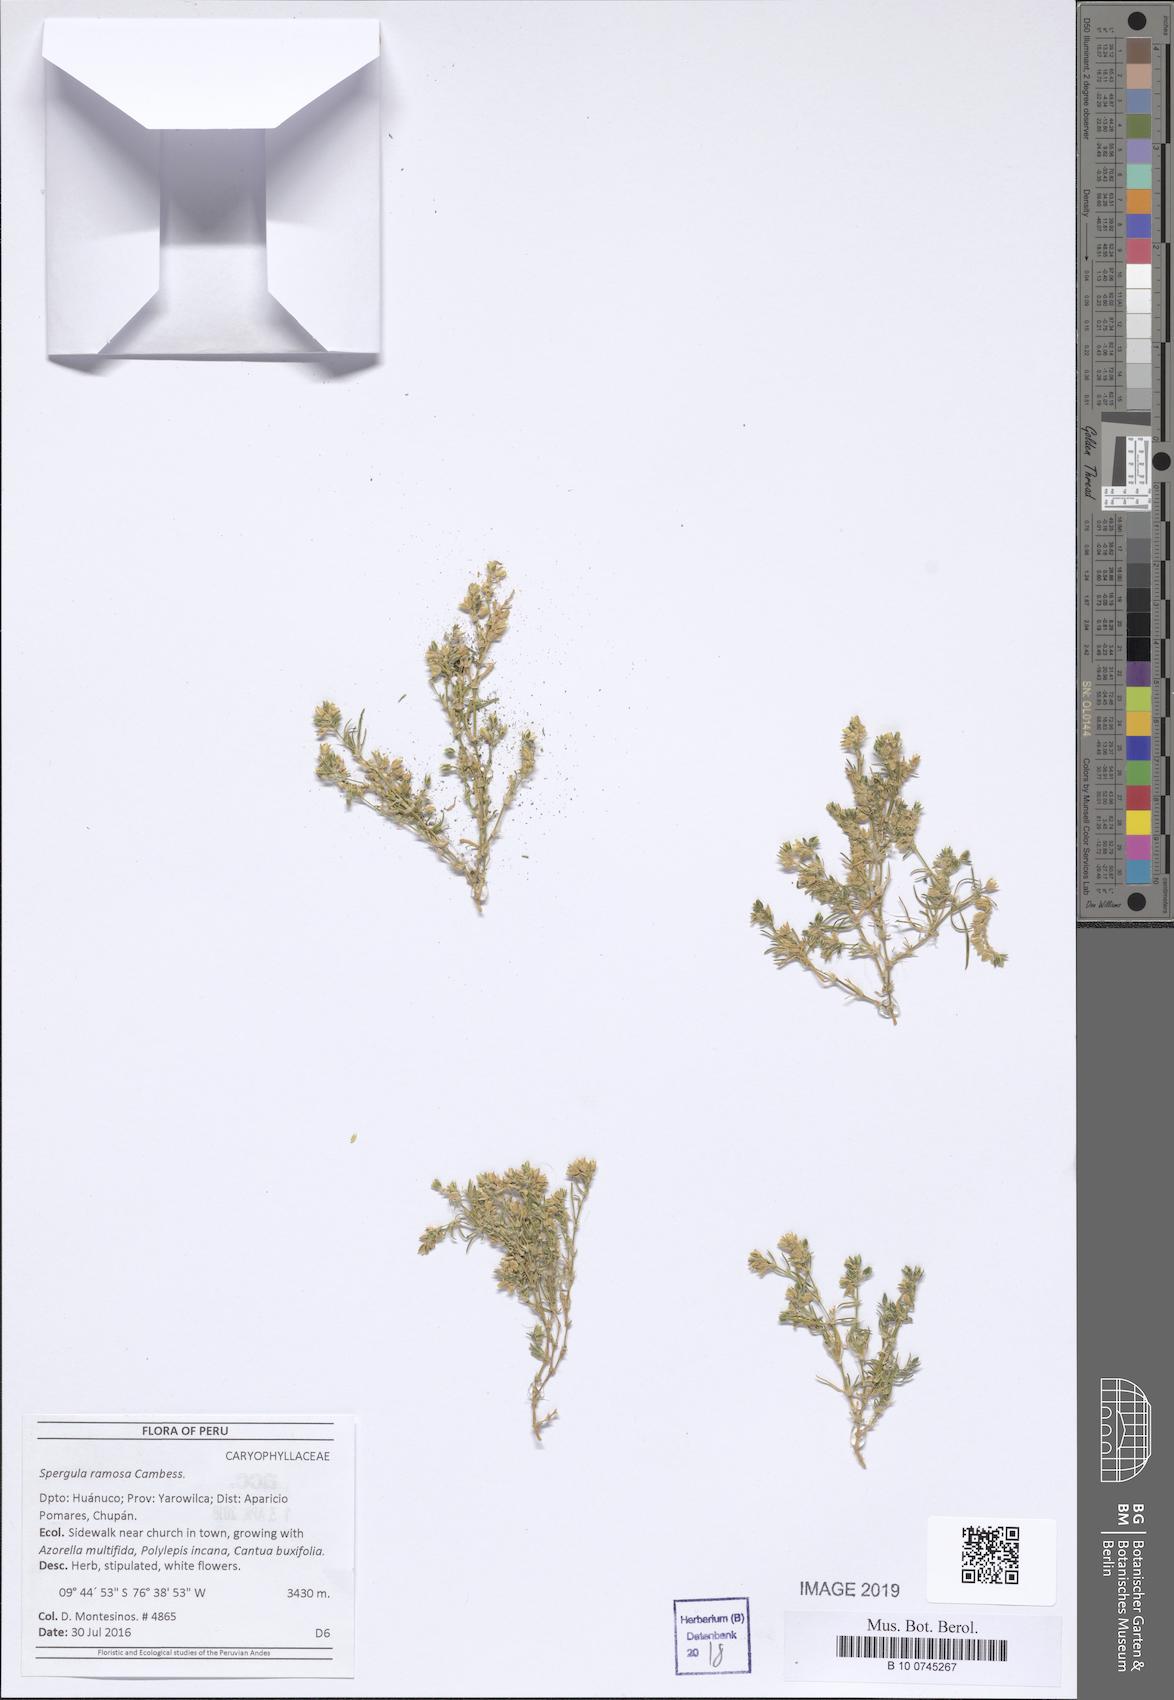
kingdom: Plantae
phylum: Tracheophyta
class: Magnoliopsida
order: Caryophyllales
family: Caryophyllaceae
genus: Spergula
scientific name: Spergula ramosa
